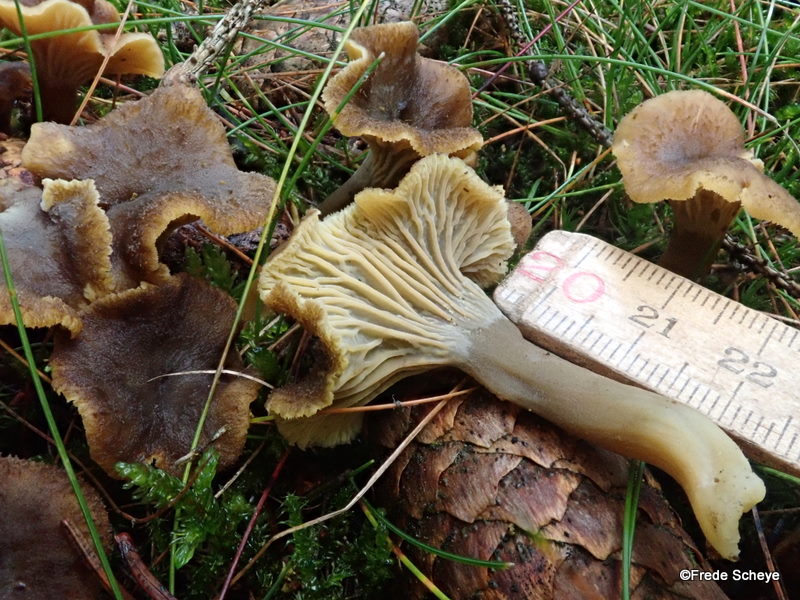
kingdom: Fungi
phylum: Basidiomycota
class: Agaricomycetes
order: Cantharellales
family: Hydnaceae
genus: Craterellus
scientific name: Craterellus tubaeformis
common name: tragt-kantarel
